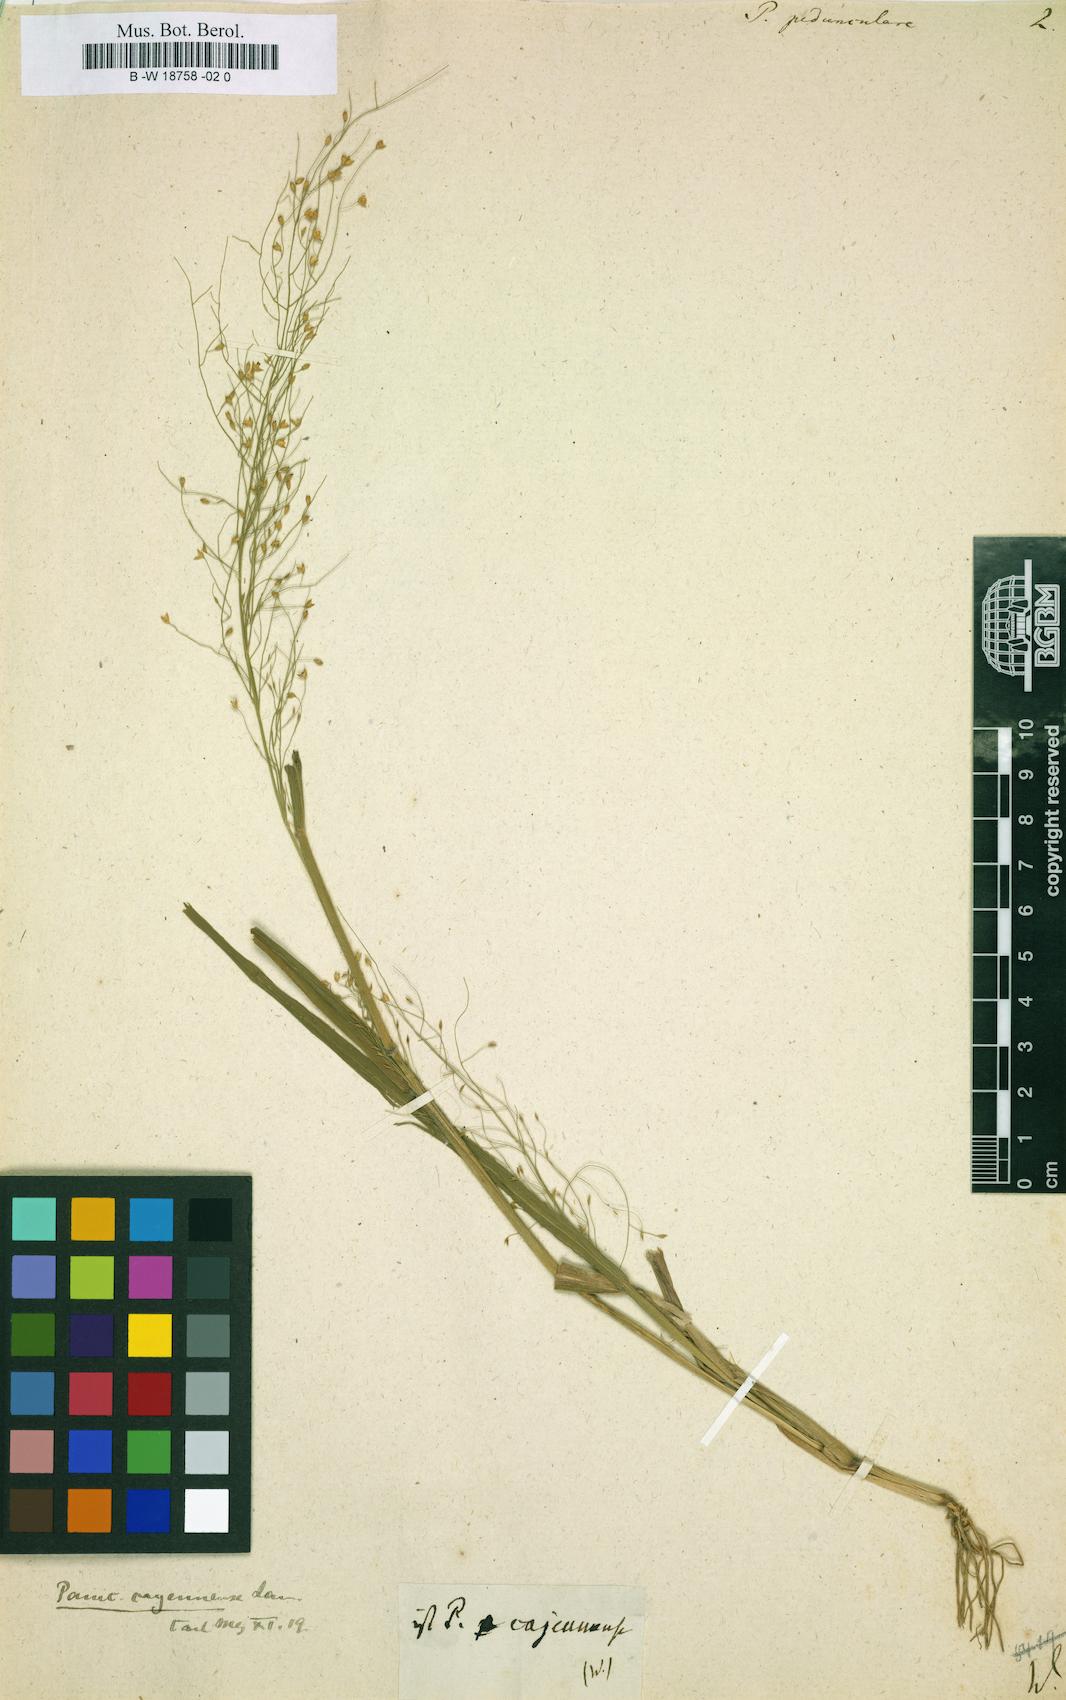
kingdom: Plantae
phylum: Tracheophyta
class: Liliopsida
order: Poales
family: Poaceae
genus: Panicum
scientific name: Panicum cayennense
